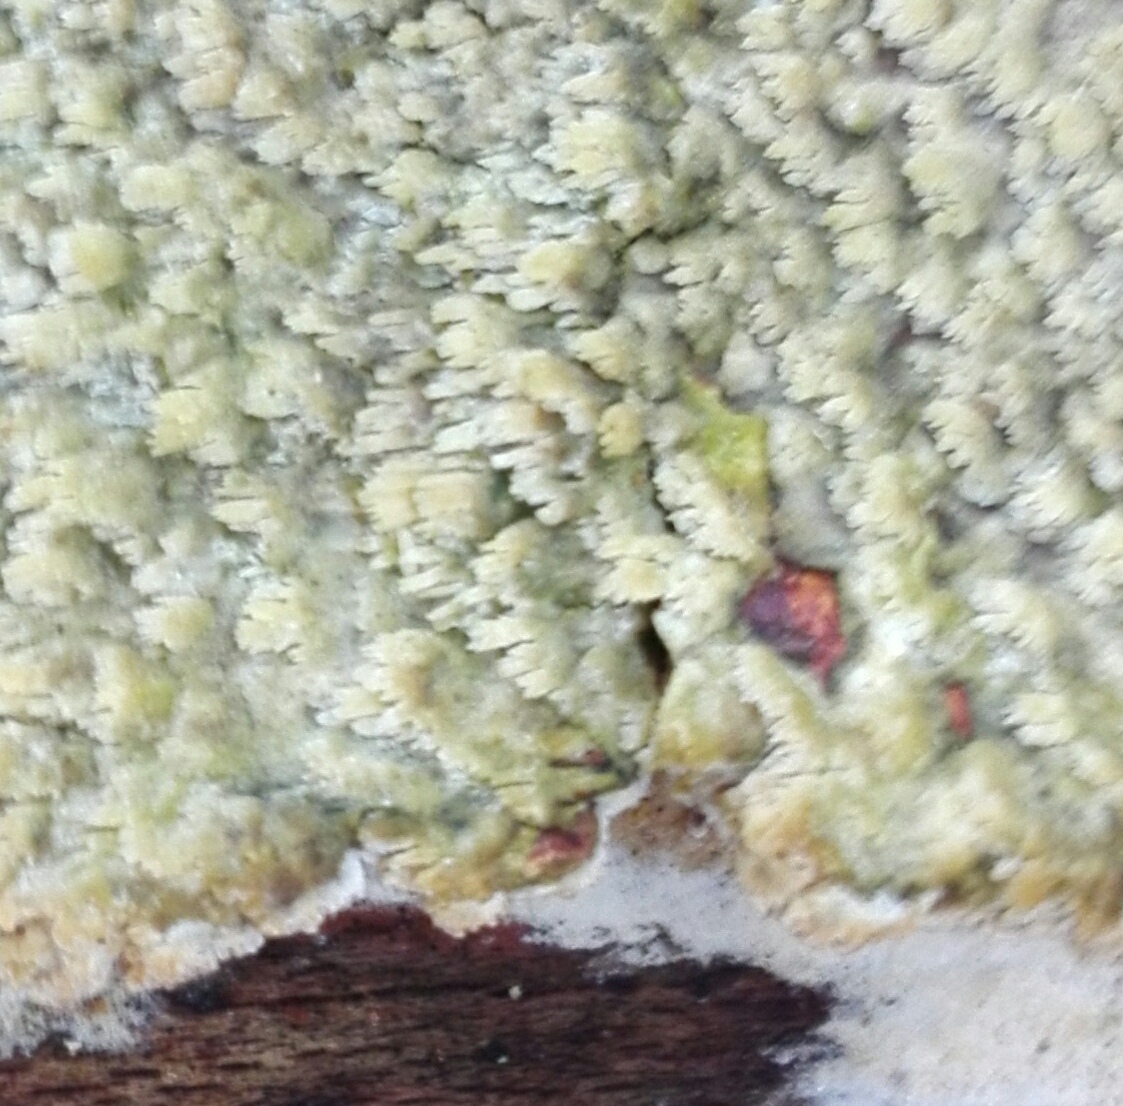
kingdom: Fungi
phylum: Basidiomycota
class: Agaricomycetes
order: Hymenochaetales
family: Schizoporaceae
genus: Schizopora
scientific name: Schizopora paradoxa
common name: hvid tandsvamp
